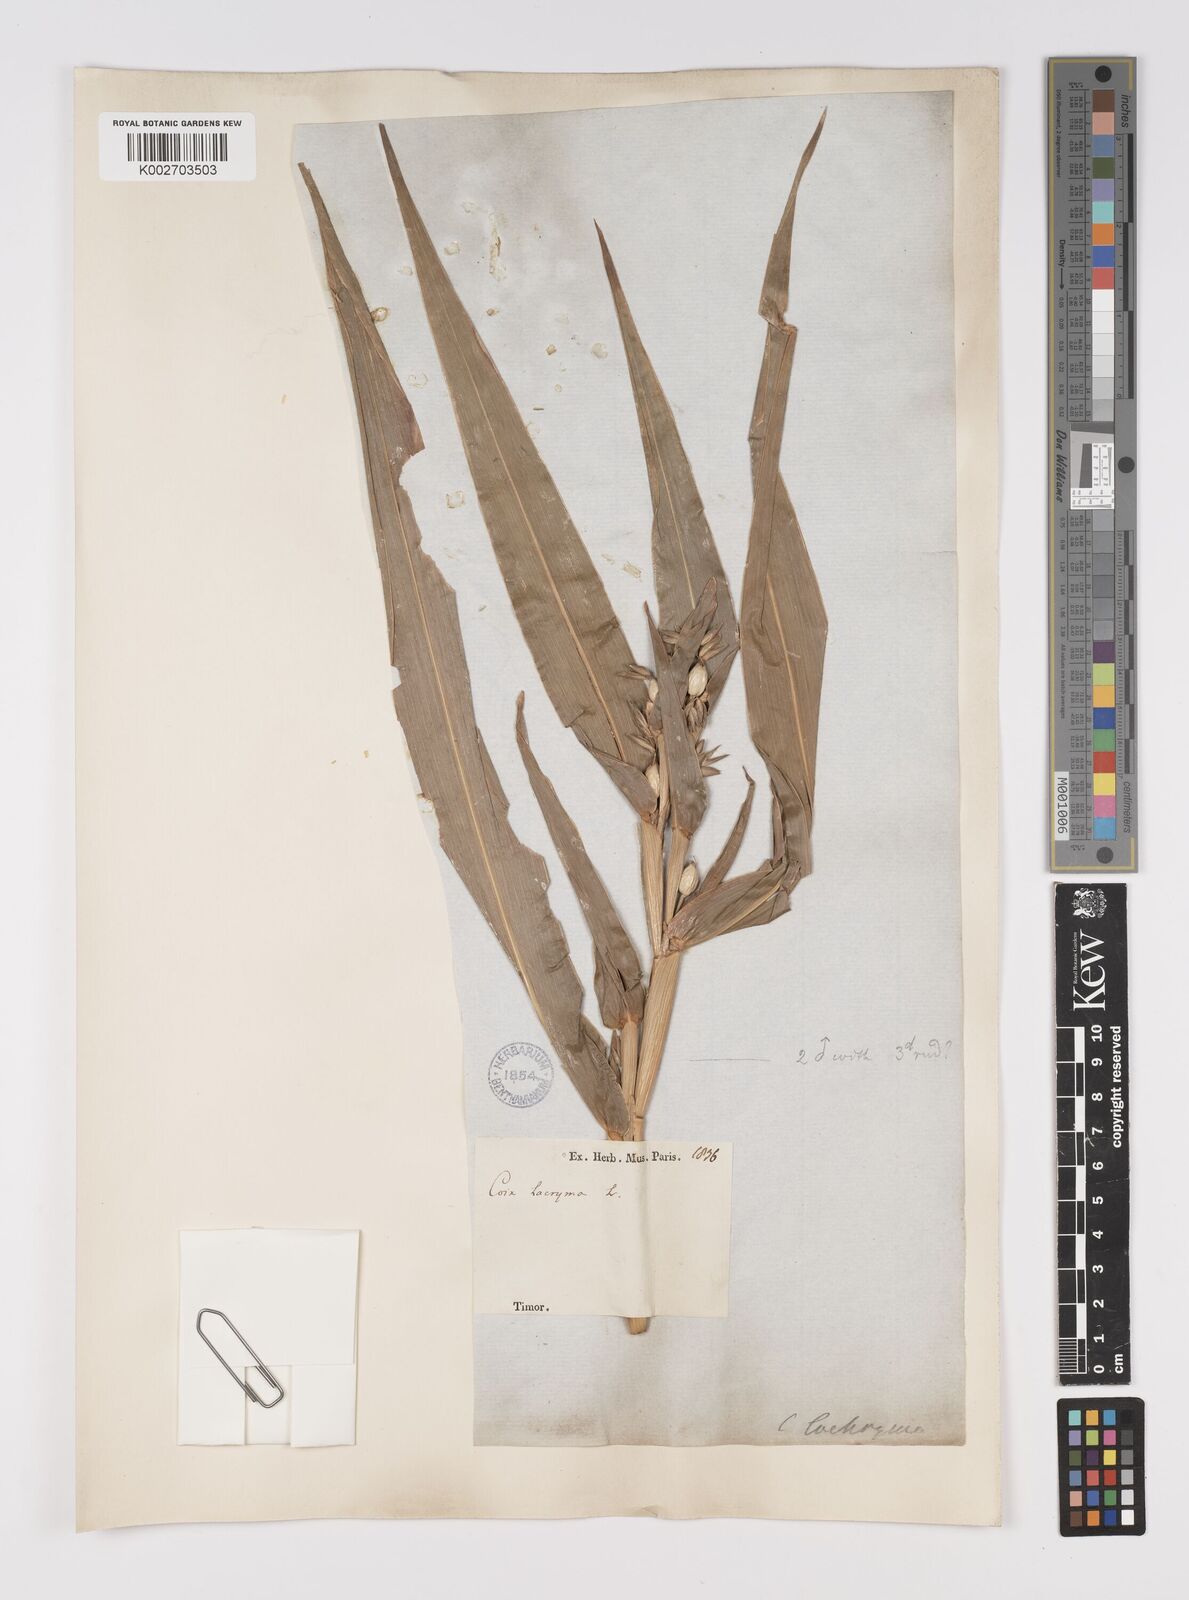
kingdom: Plantae
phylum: Tracheophyta
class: Liliopsida
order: Poales
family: Poaceae
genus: Coix
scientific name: Coix lacryma-jobi
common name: Job's tears
